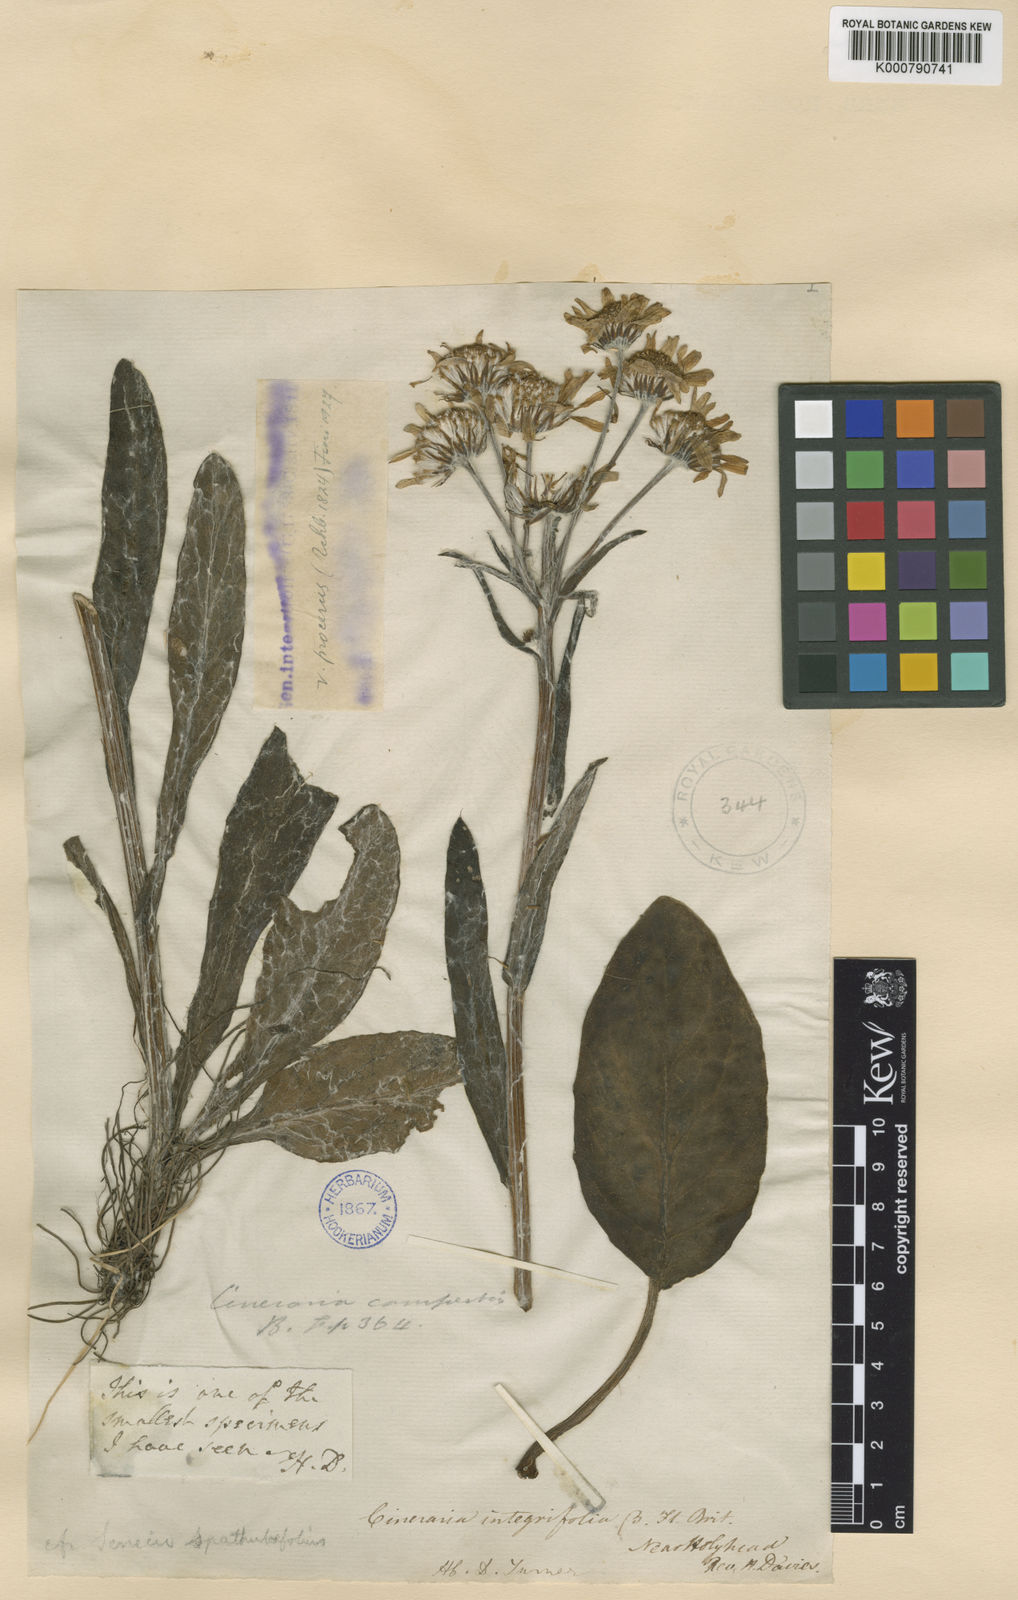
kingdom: Plantae
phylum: Tracheophyta
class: Magnoliopsida
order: Asterales
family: Asteraceae
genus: Tephroseris
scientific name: Tephroseris integrifolia
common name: Field fleawort
